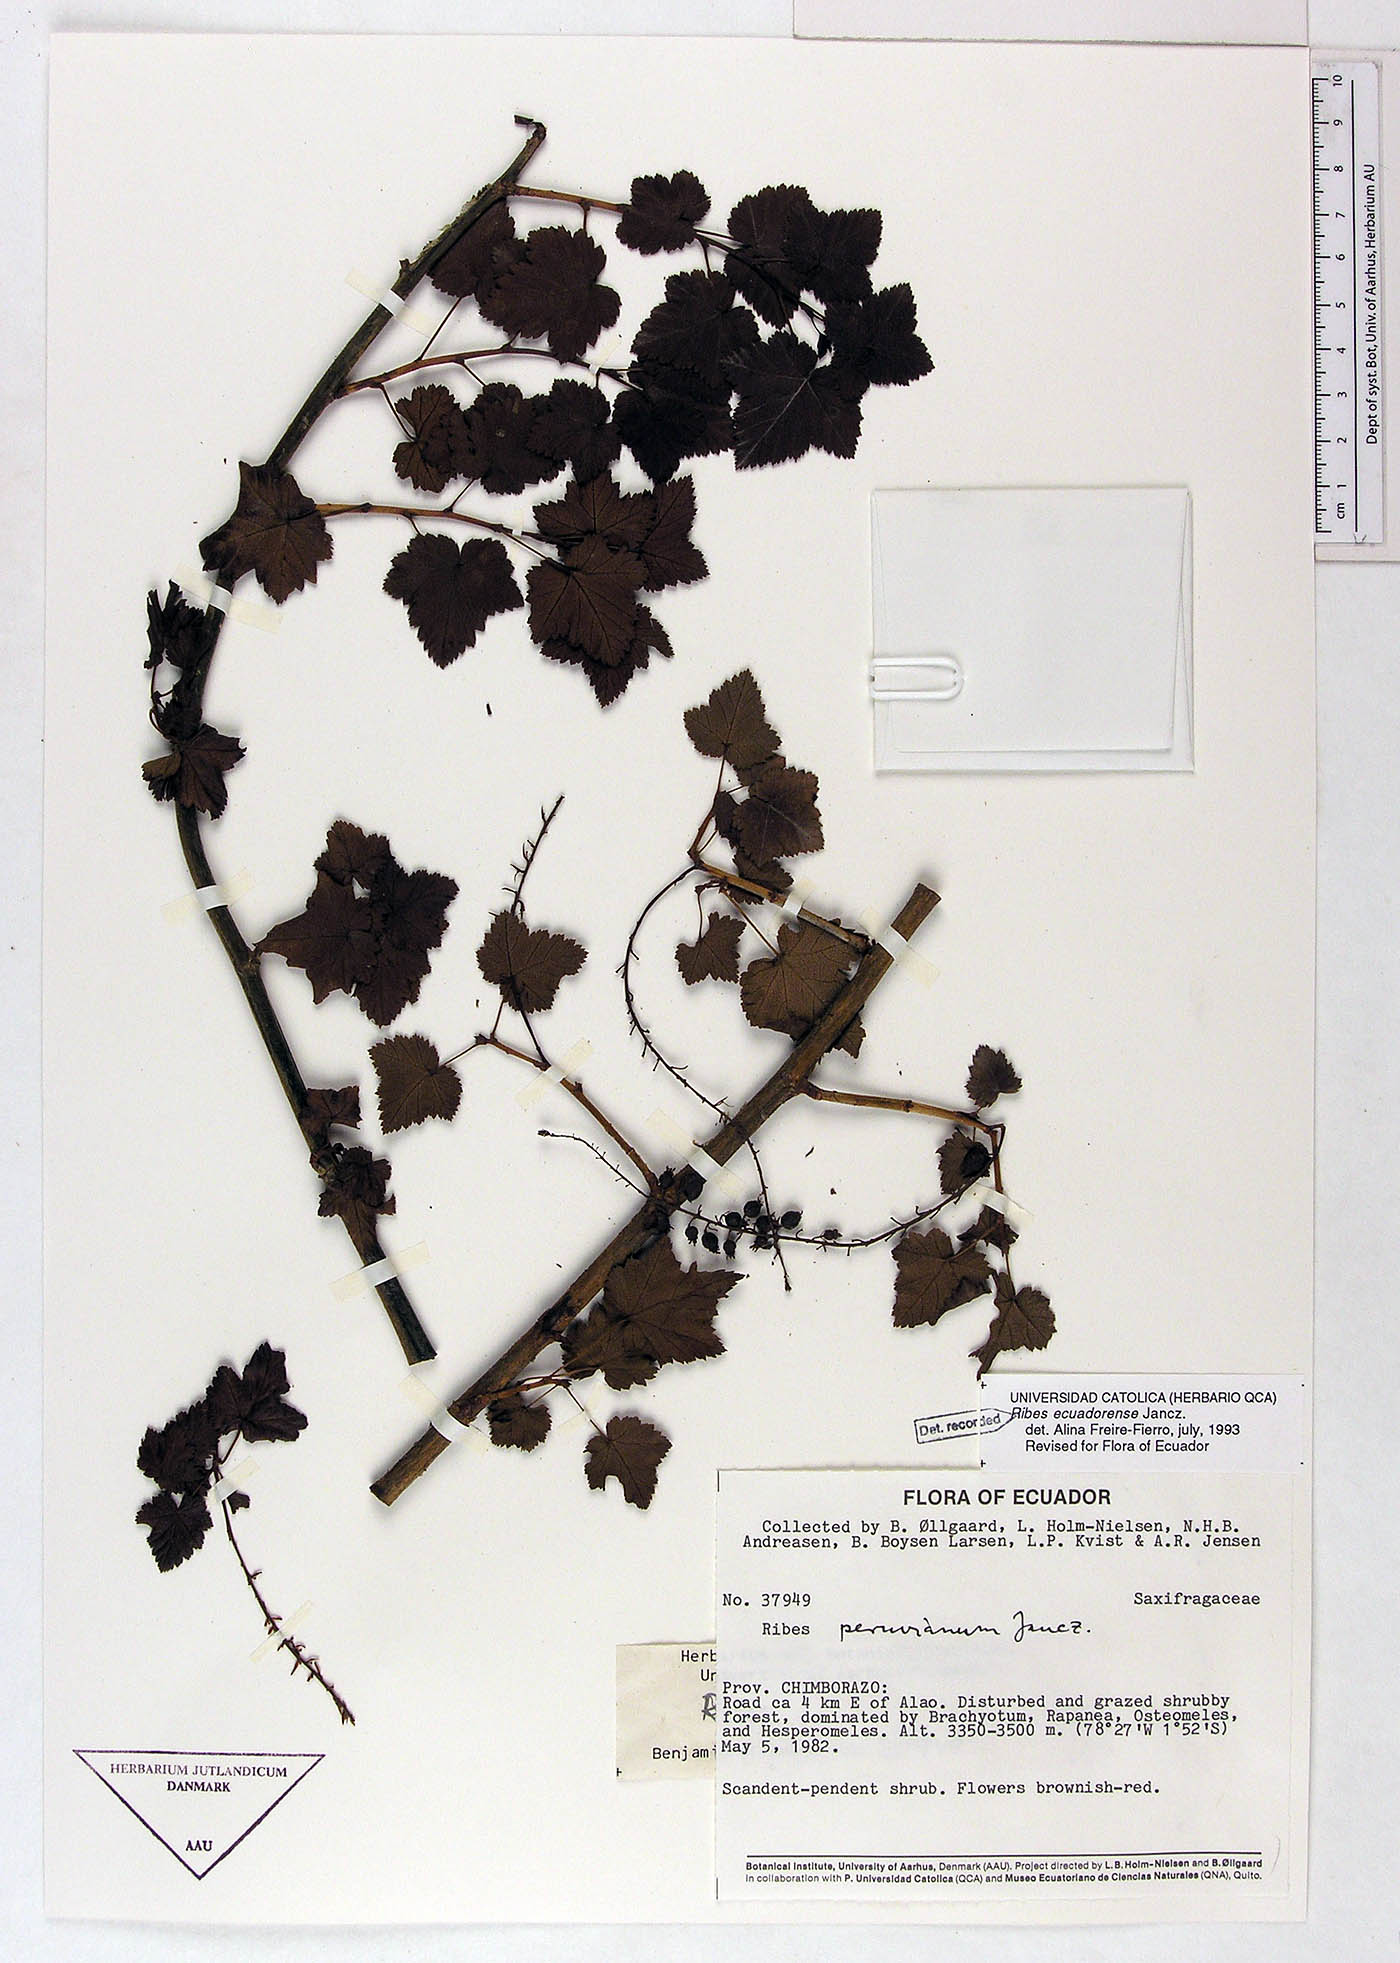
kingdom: Plantae
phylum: Tracheophyta
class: Magnoliopsida
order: Saxifragales
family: Grossulariaceae
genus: Ribes
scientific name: Ribes ecuadorense
